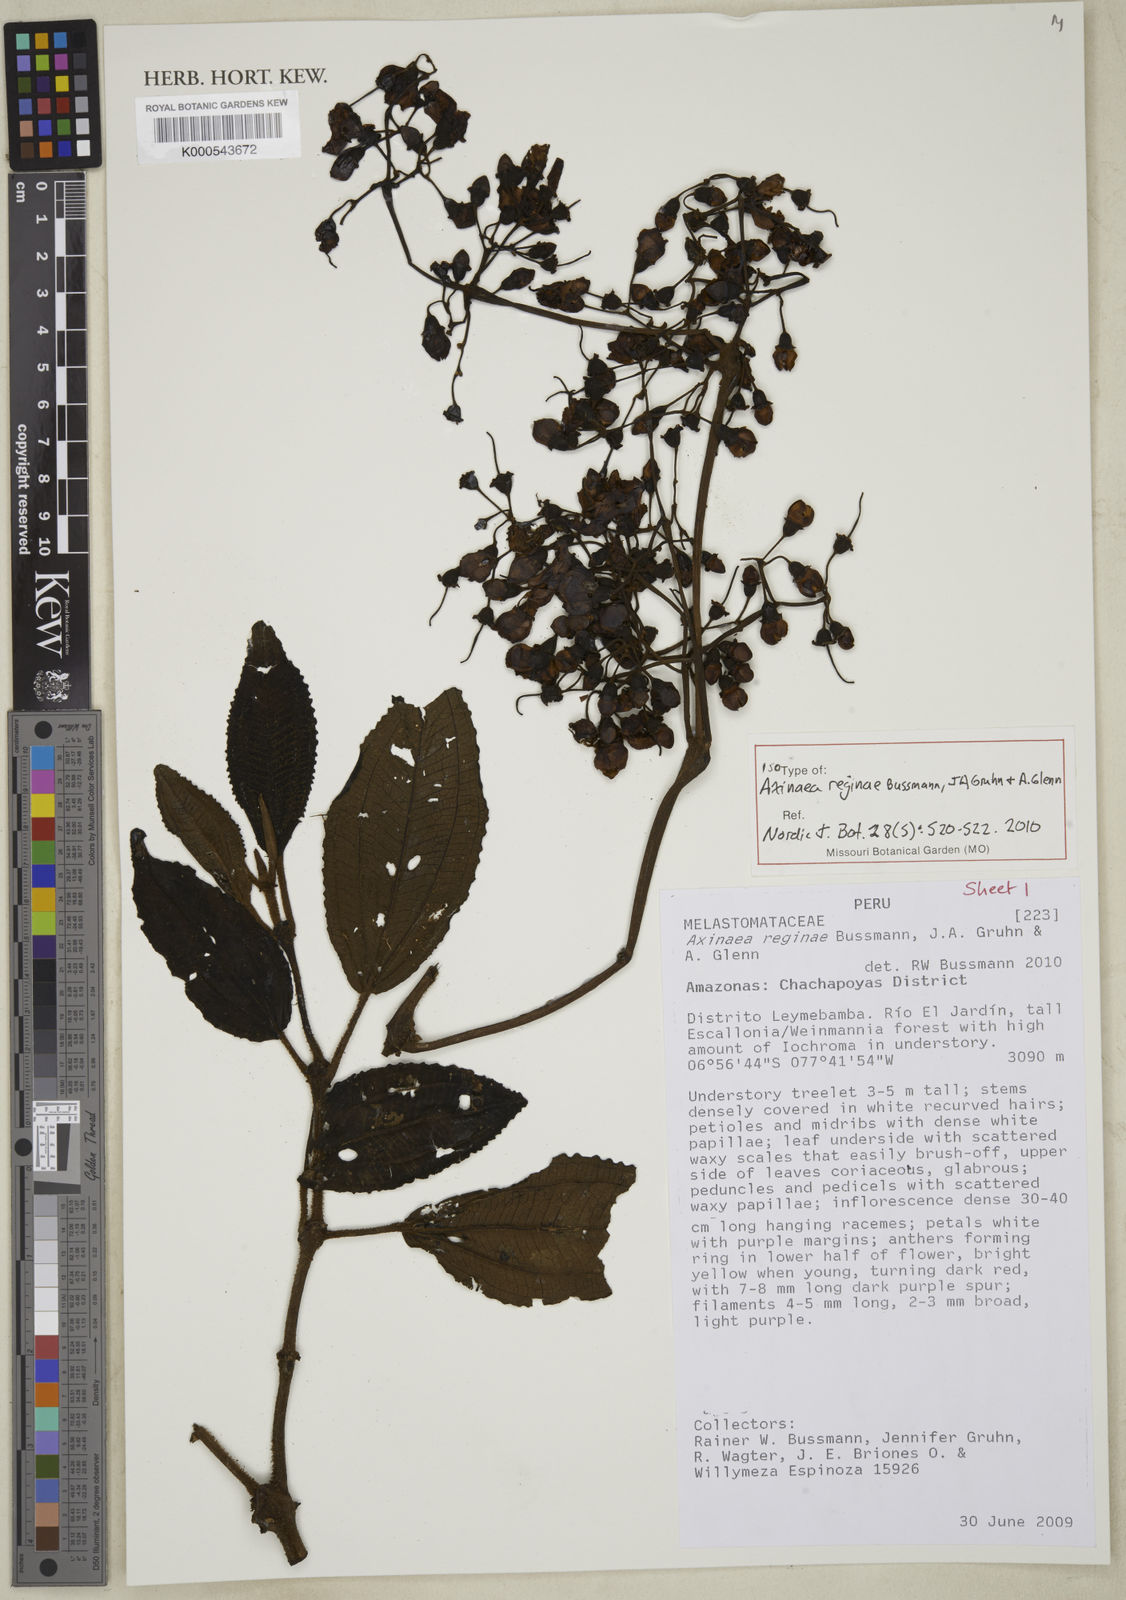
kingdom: Plantae
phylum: Tracheophyta
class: Magnoliopsida
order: Myrtales
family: Melastomataceae
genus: Axinaea
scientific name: Axinaea reginae
